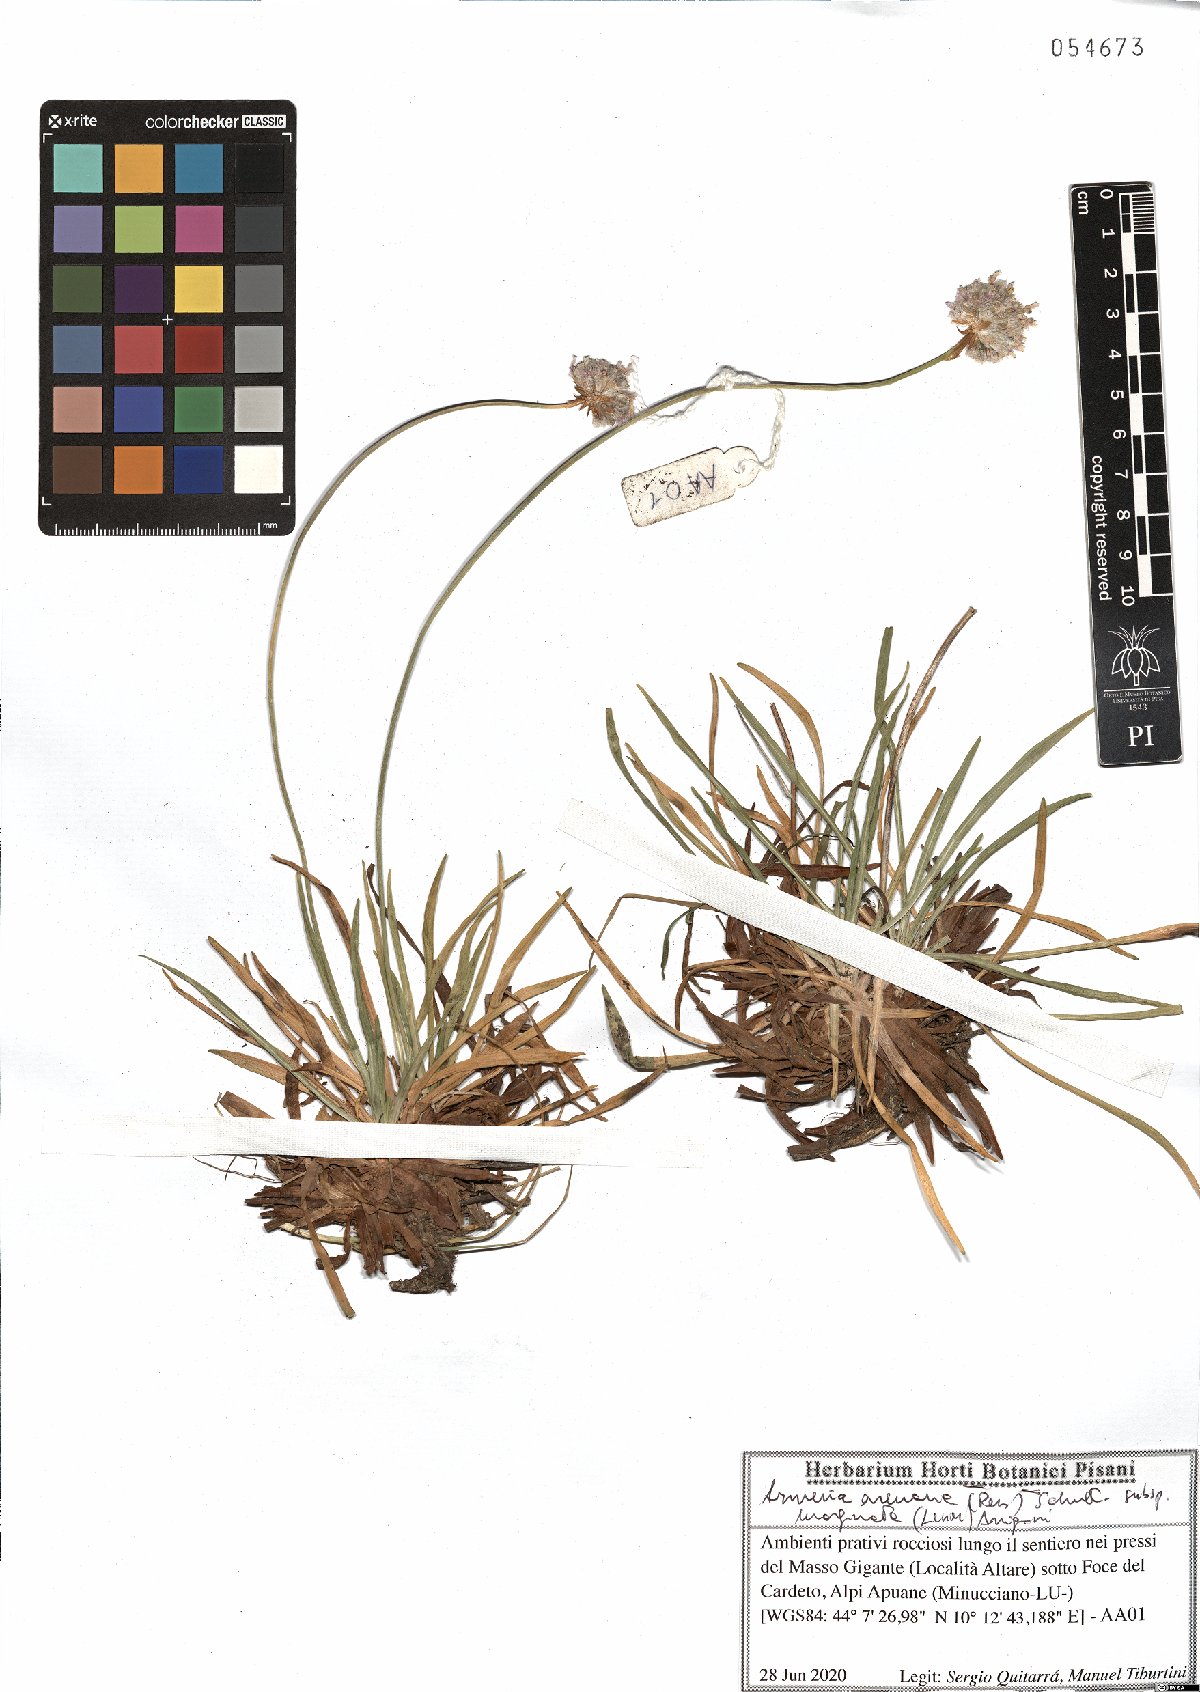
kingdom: Plantae
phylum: Tracheophyta
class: Magnoliopsida
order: Caryophyllales
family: Plumbaginaceae
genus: Armeria
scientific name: Armeria arenaria
